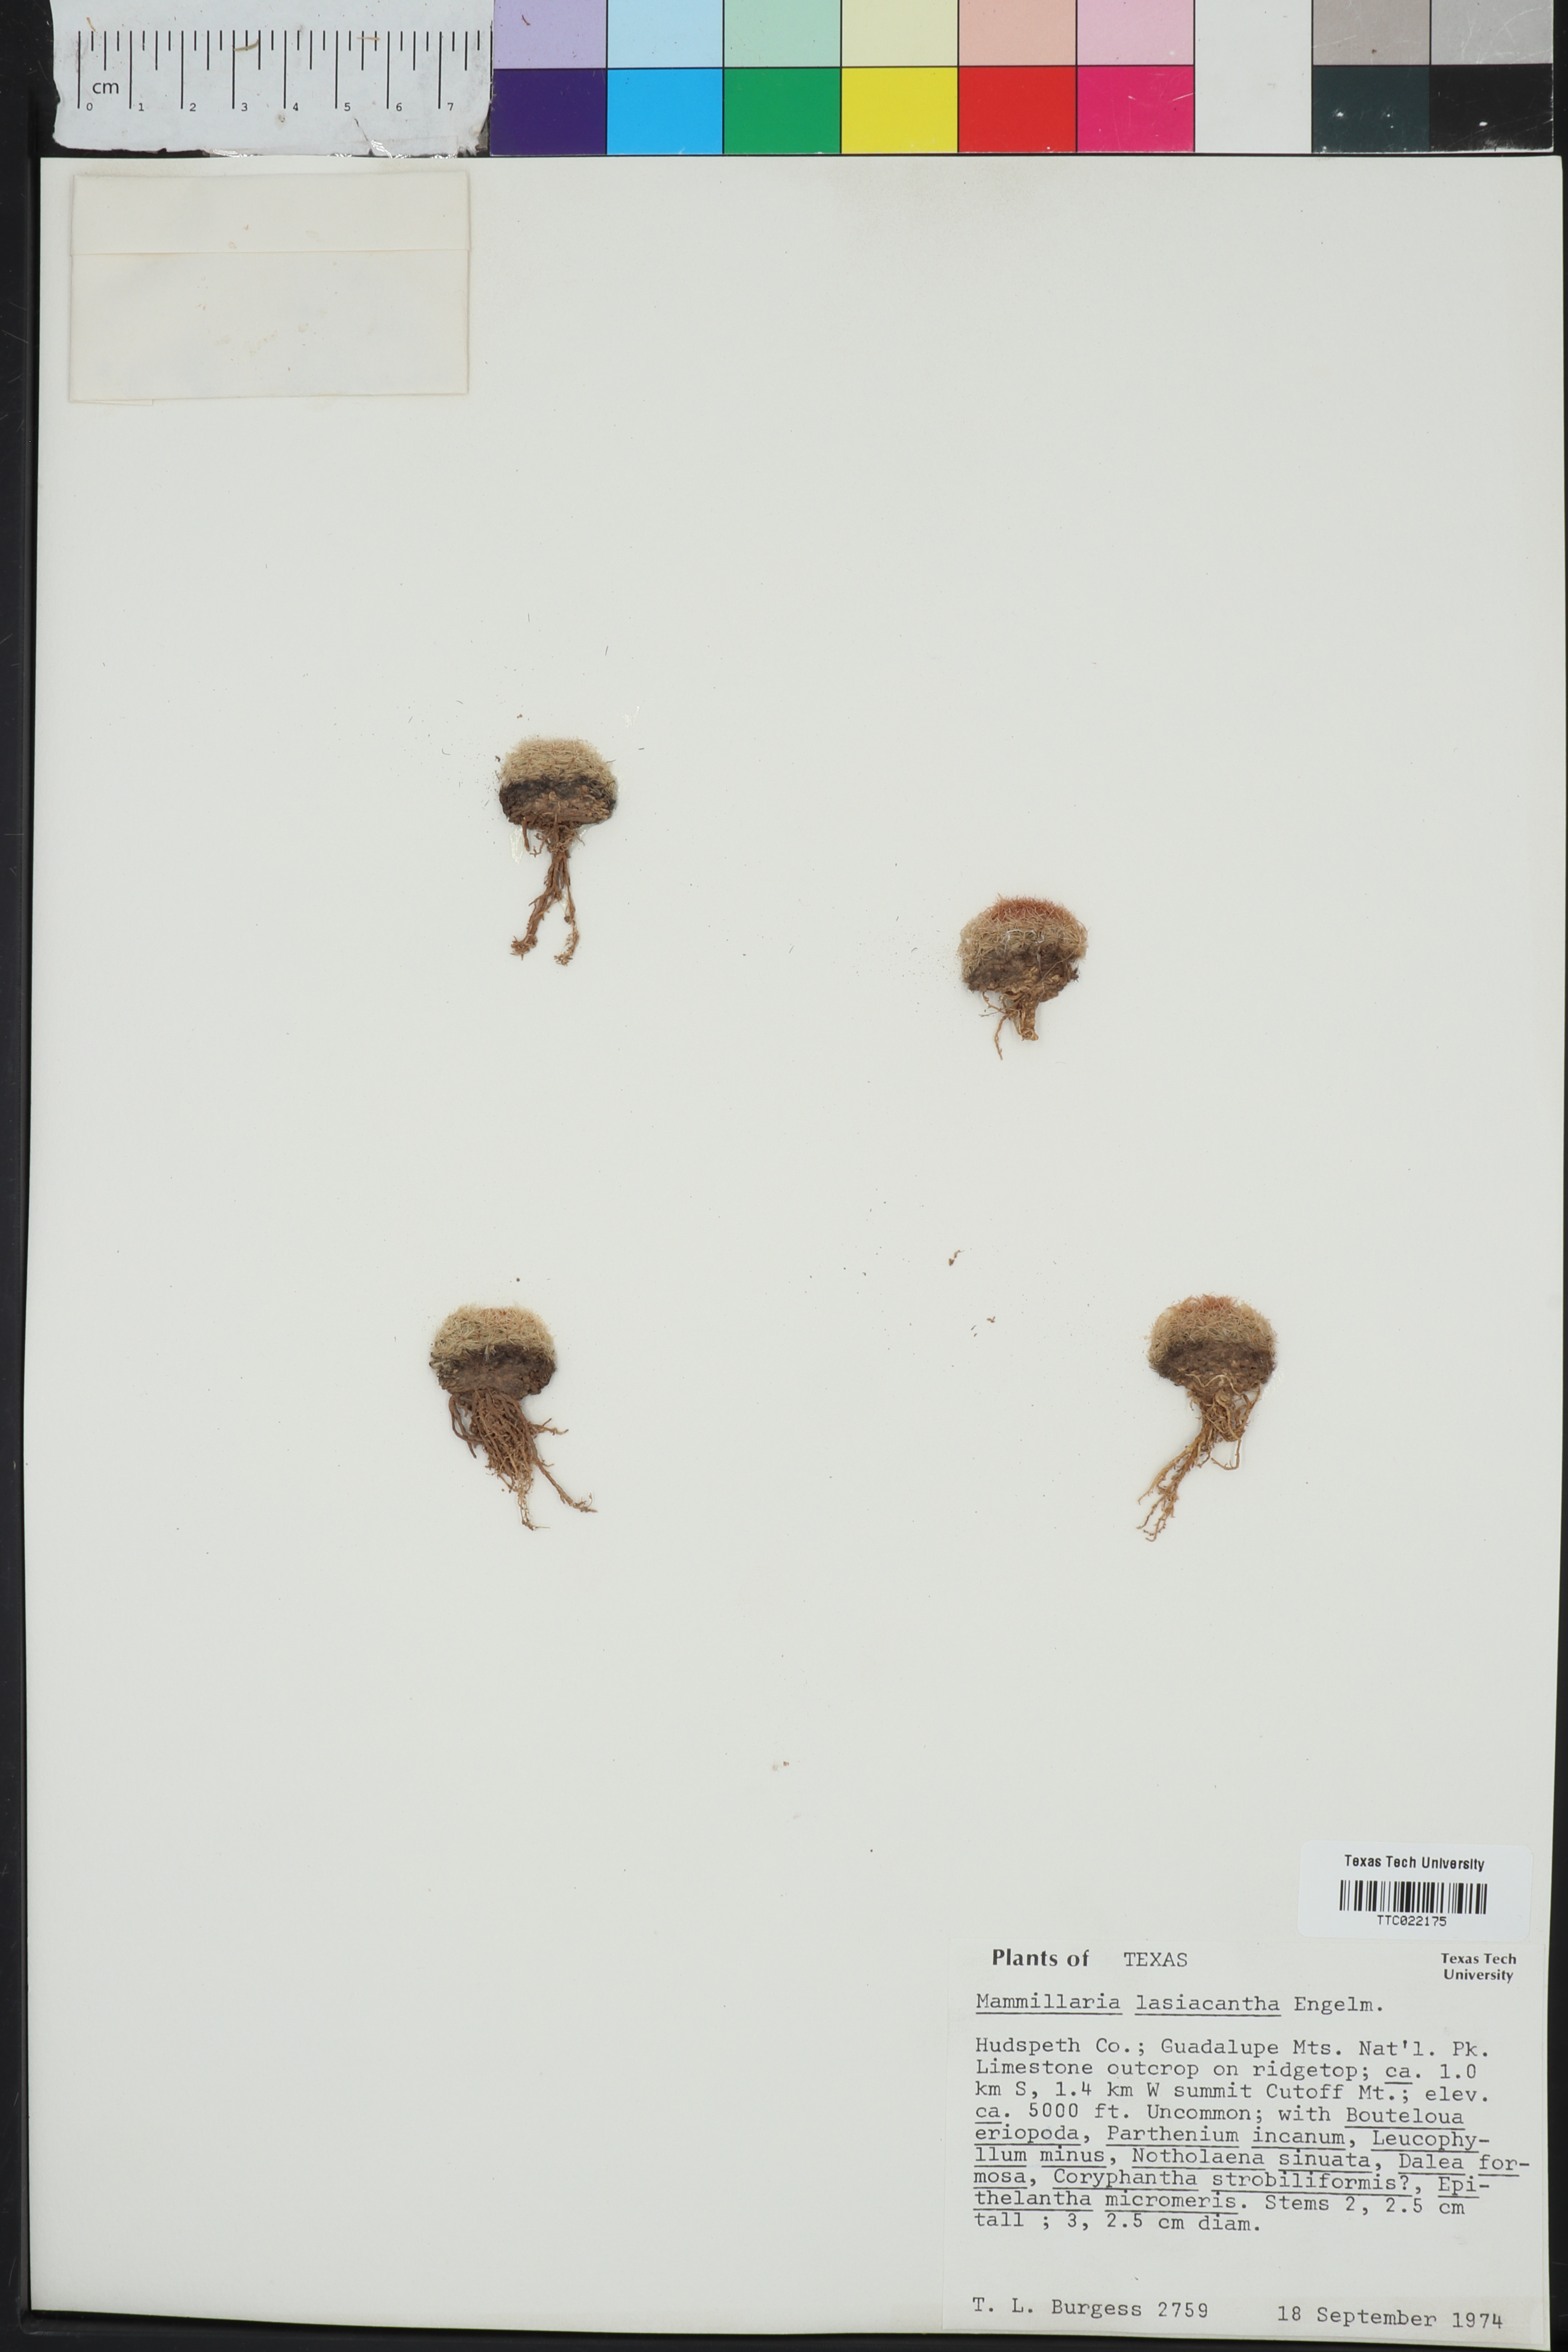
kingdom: Plantae
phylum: Tracheophyta
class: Magnoliopsida
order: Caryophyllales
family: Cactaceae
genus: Mammillaria
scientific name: Mammillaria lasiacantha
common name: Lace-spine nipple cactus
